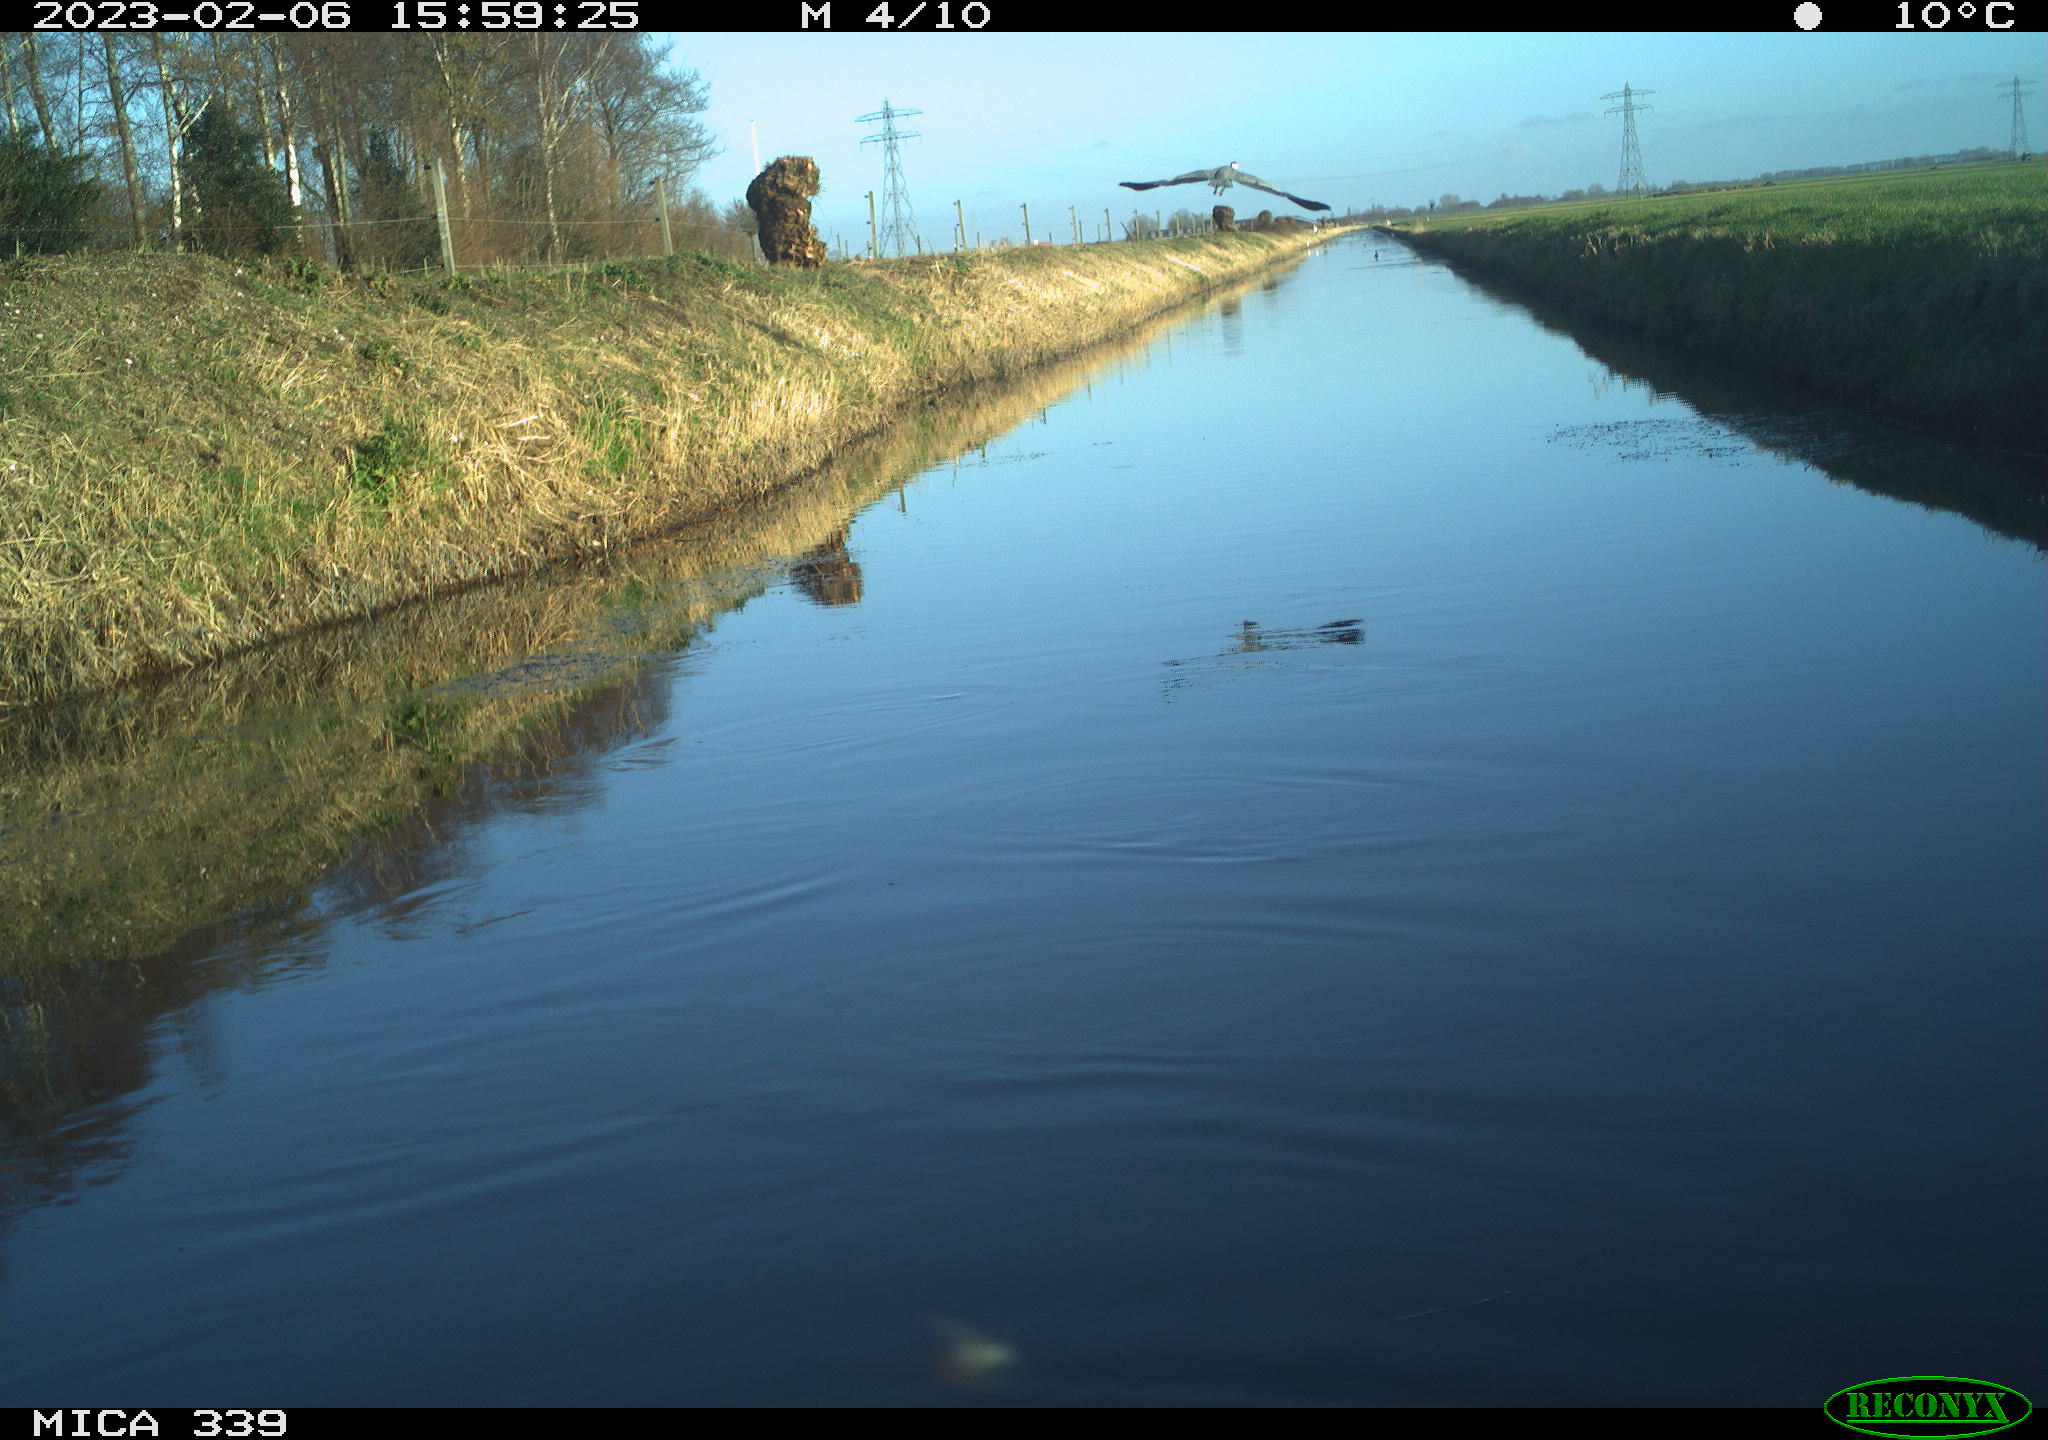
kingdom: Animalia
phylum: Chordata
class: Aves
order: Pelecaniformes
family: Ardeidae
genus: Ardea
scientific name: Ardea cinerea
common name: Grey heron
